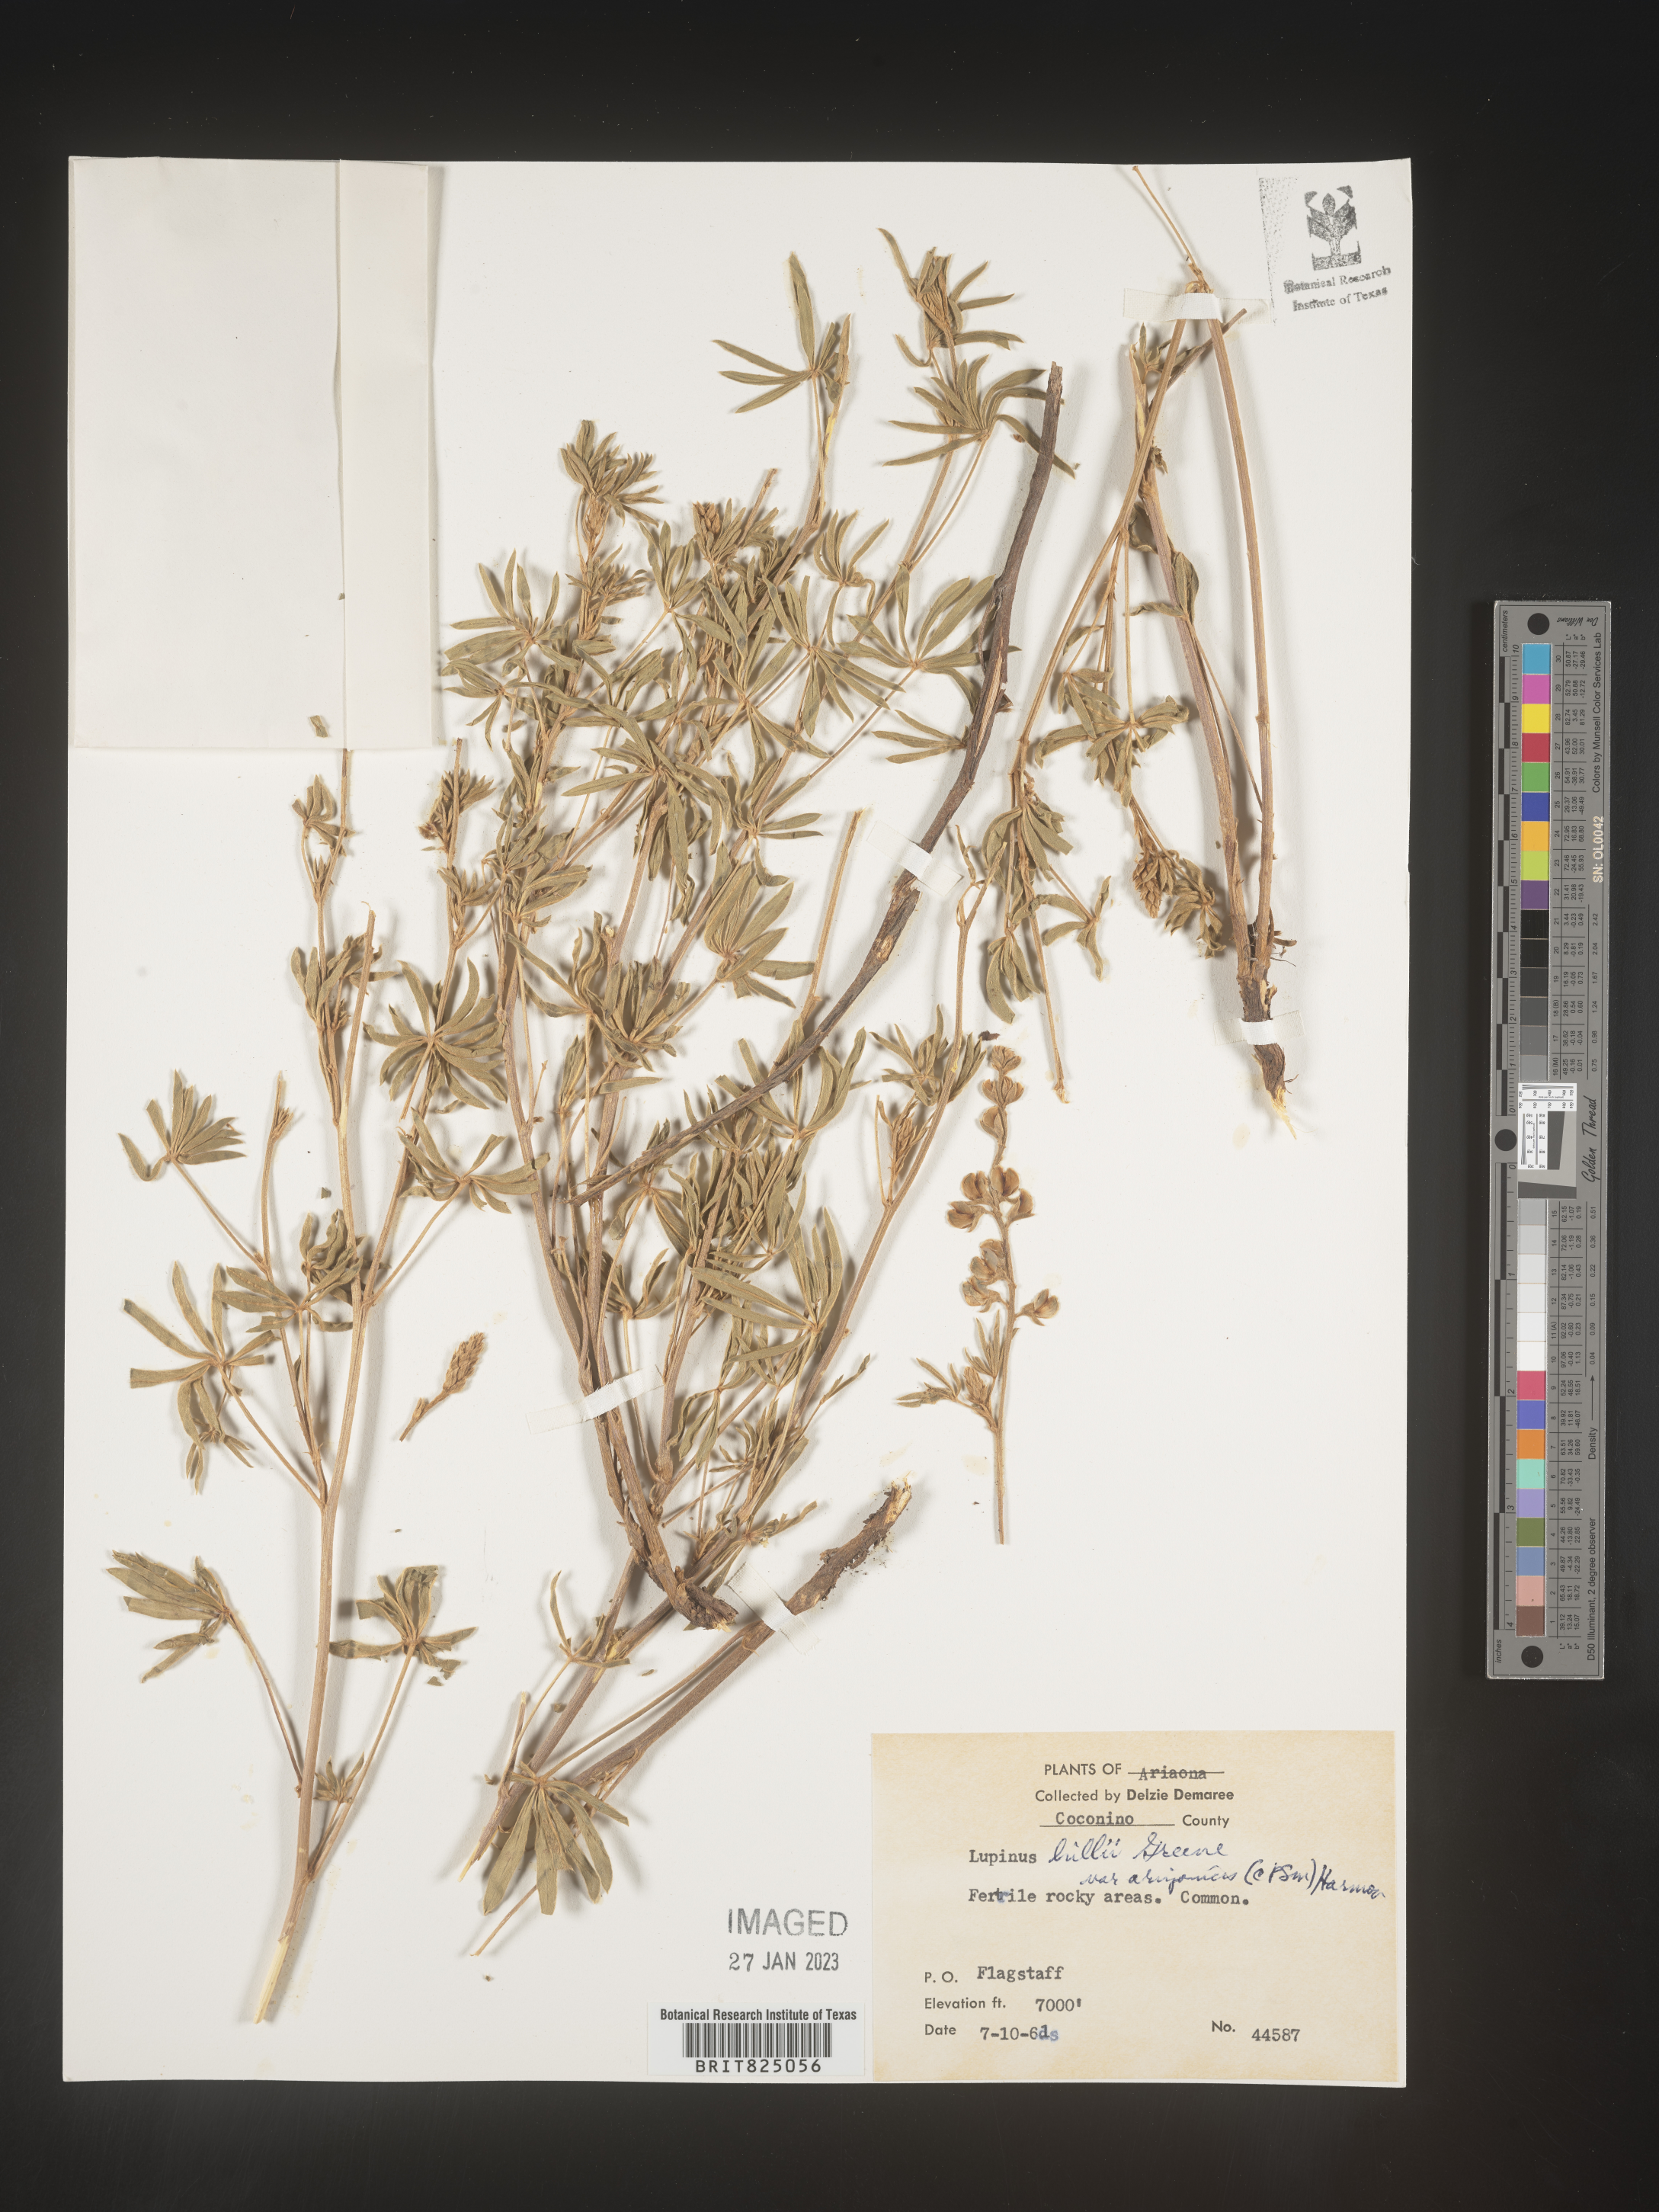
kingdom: Plantae
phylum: Tracheophyta
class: Magnoliopsida
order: Fabales
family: Fabaceae
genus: Lupinus
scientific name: Lupinus
